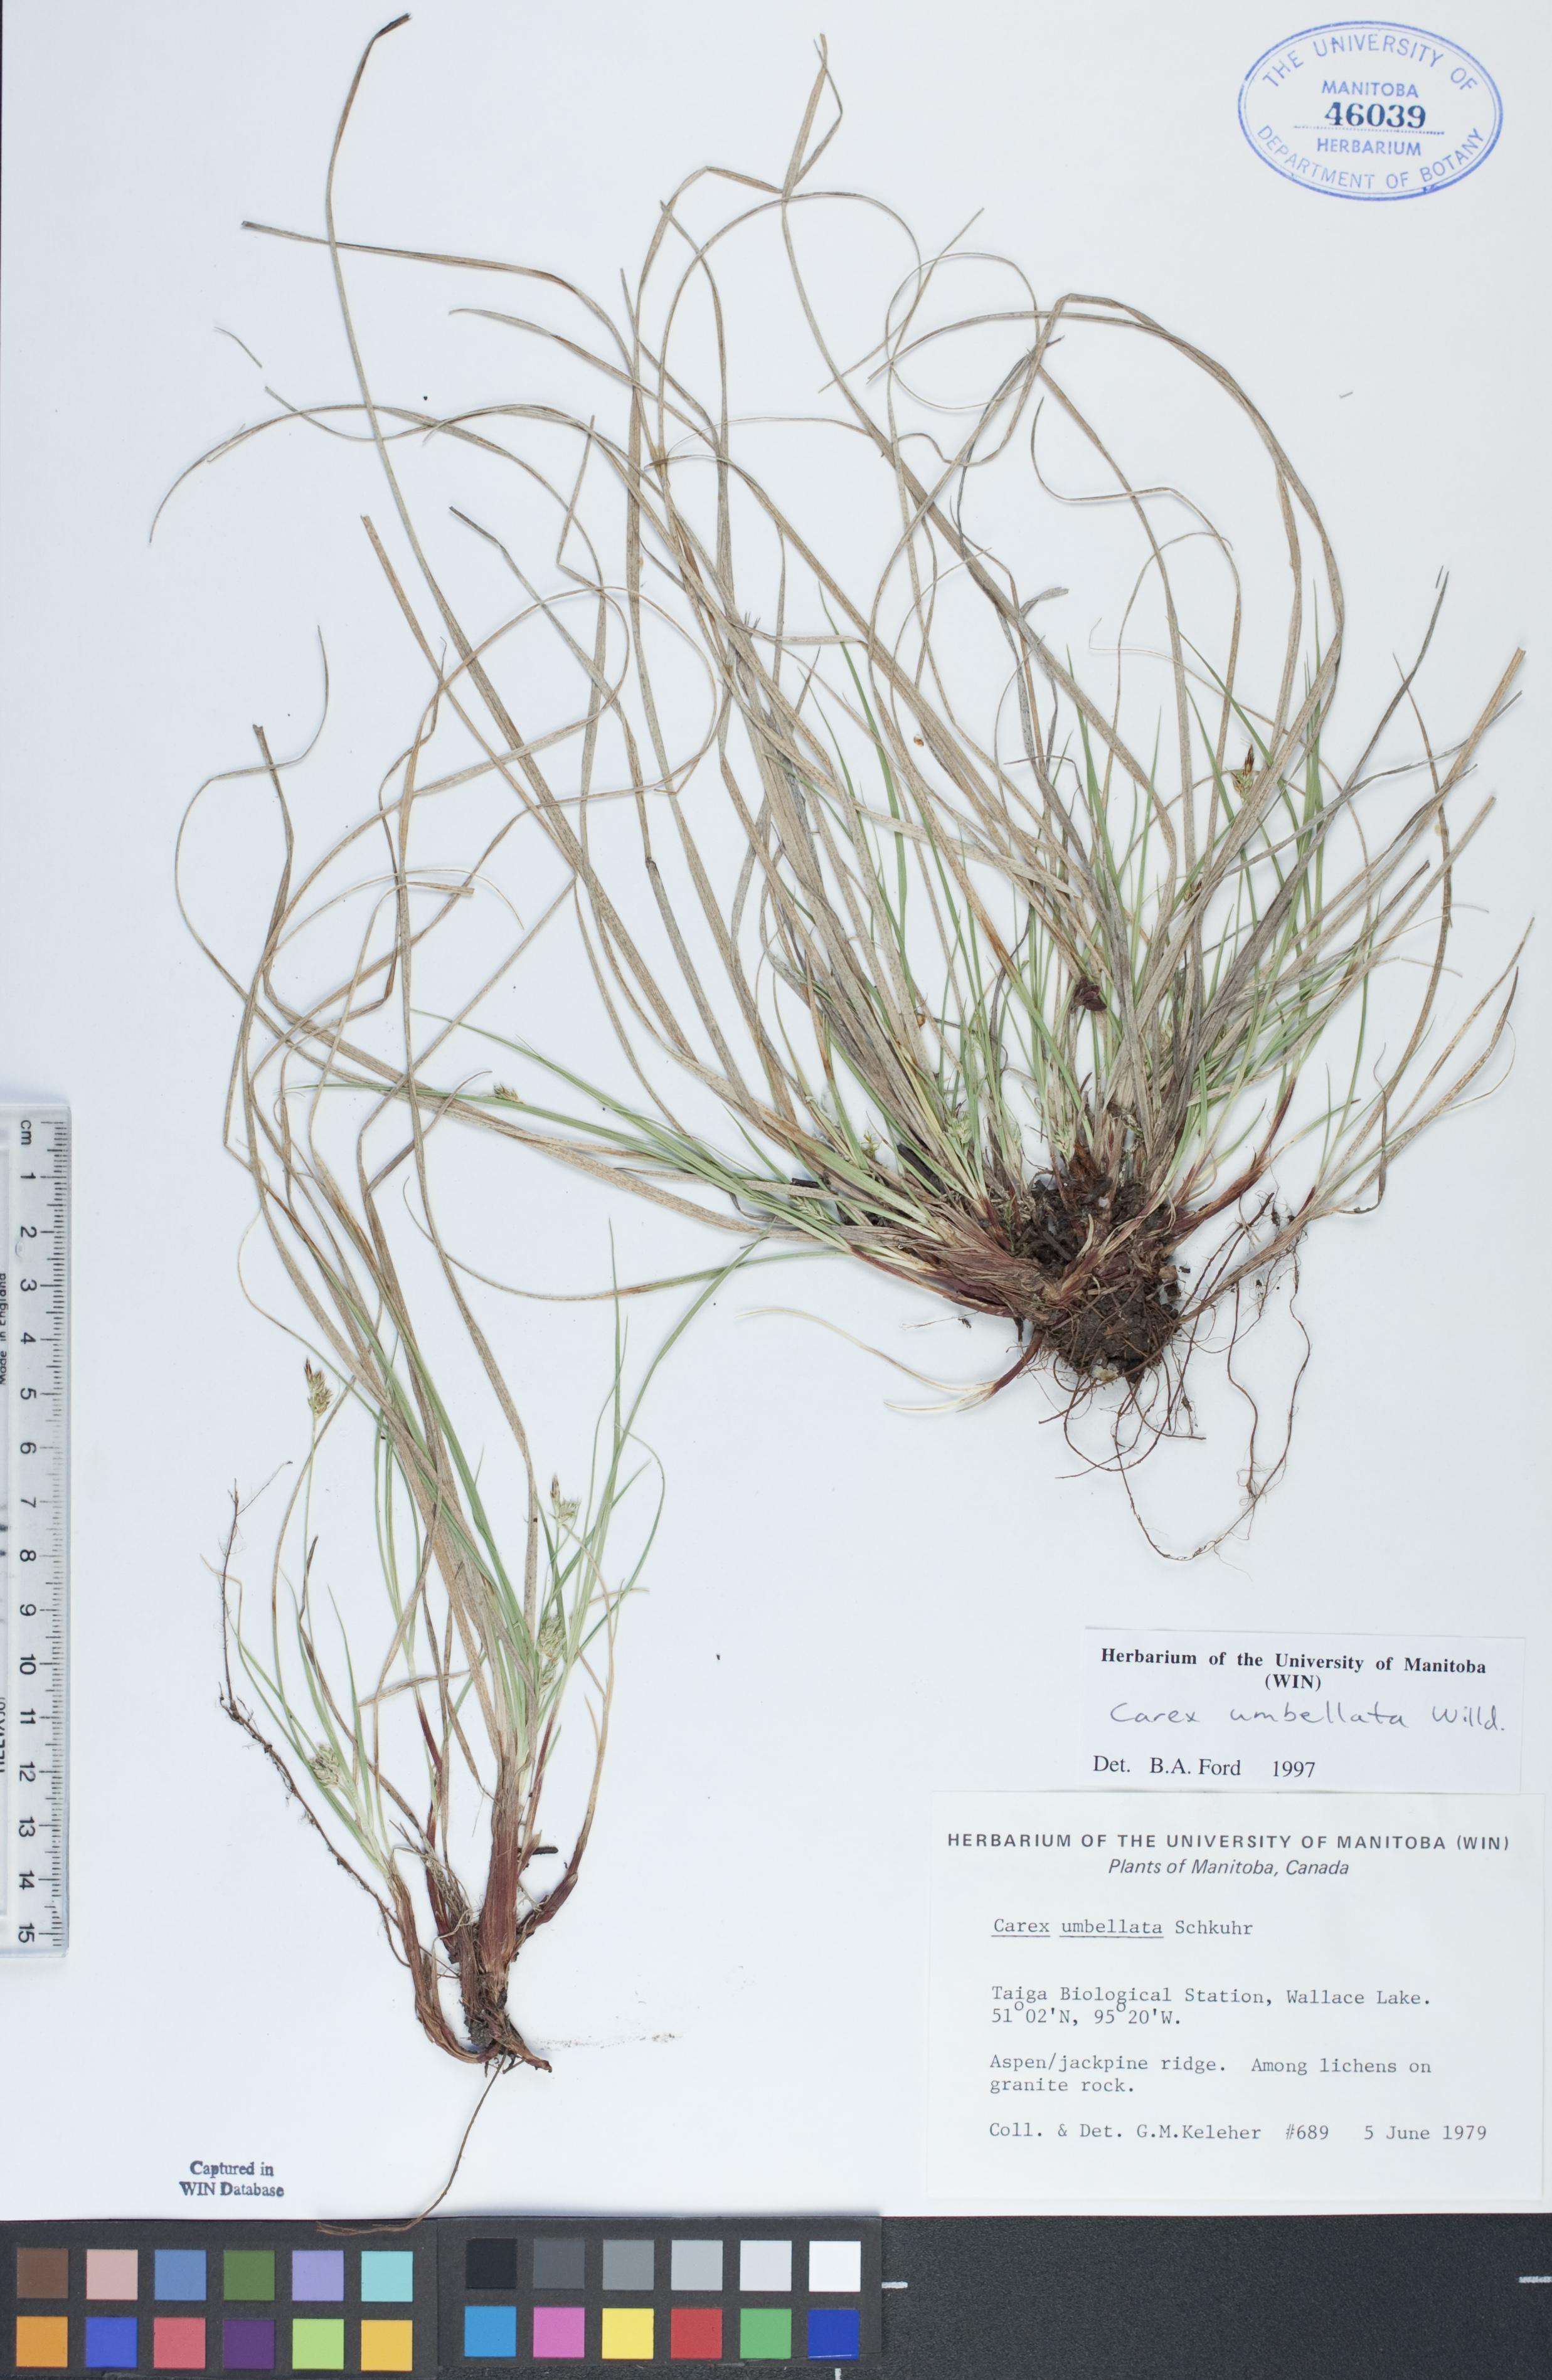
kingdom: Plantae
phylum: Tracheophyta
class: Liliopsida
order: Poales
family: Cyperaceae
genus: Carex
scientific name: Carex umbellata
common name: Early oak sedge
